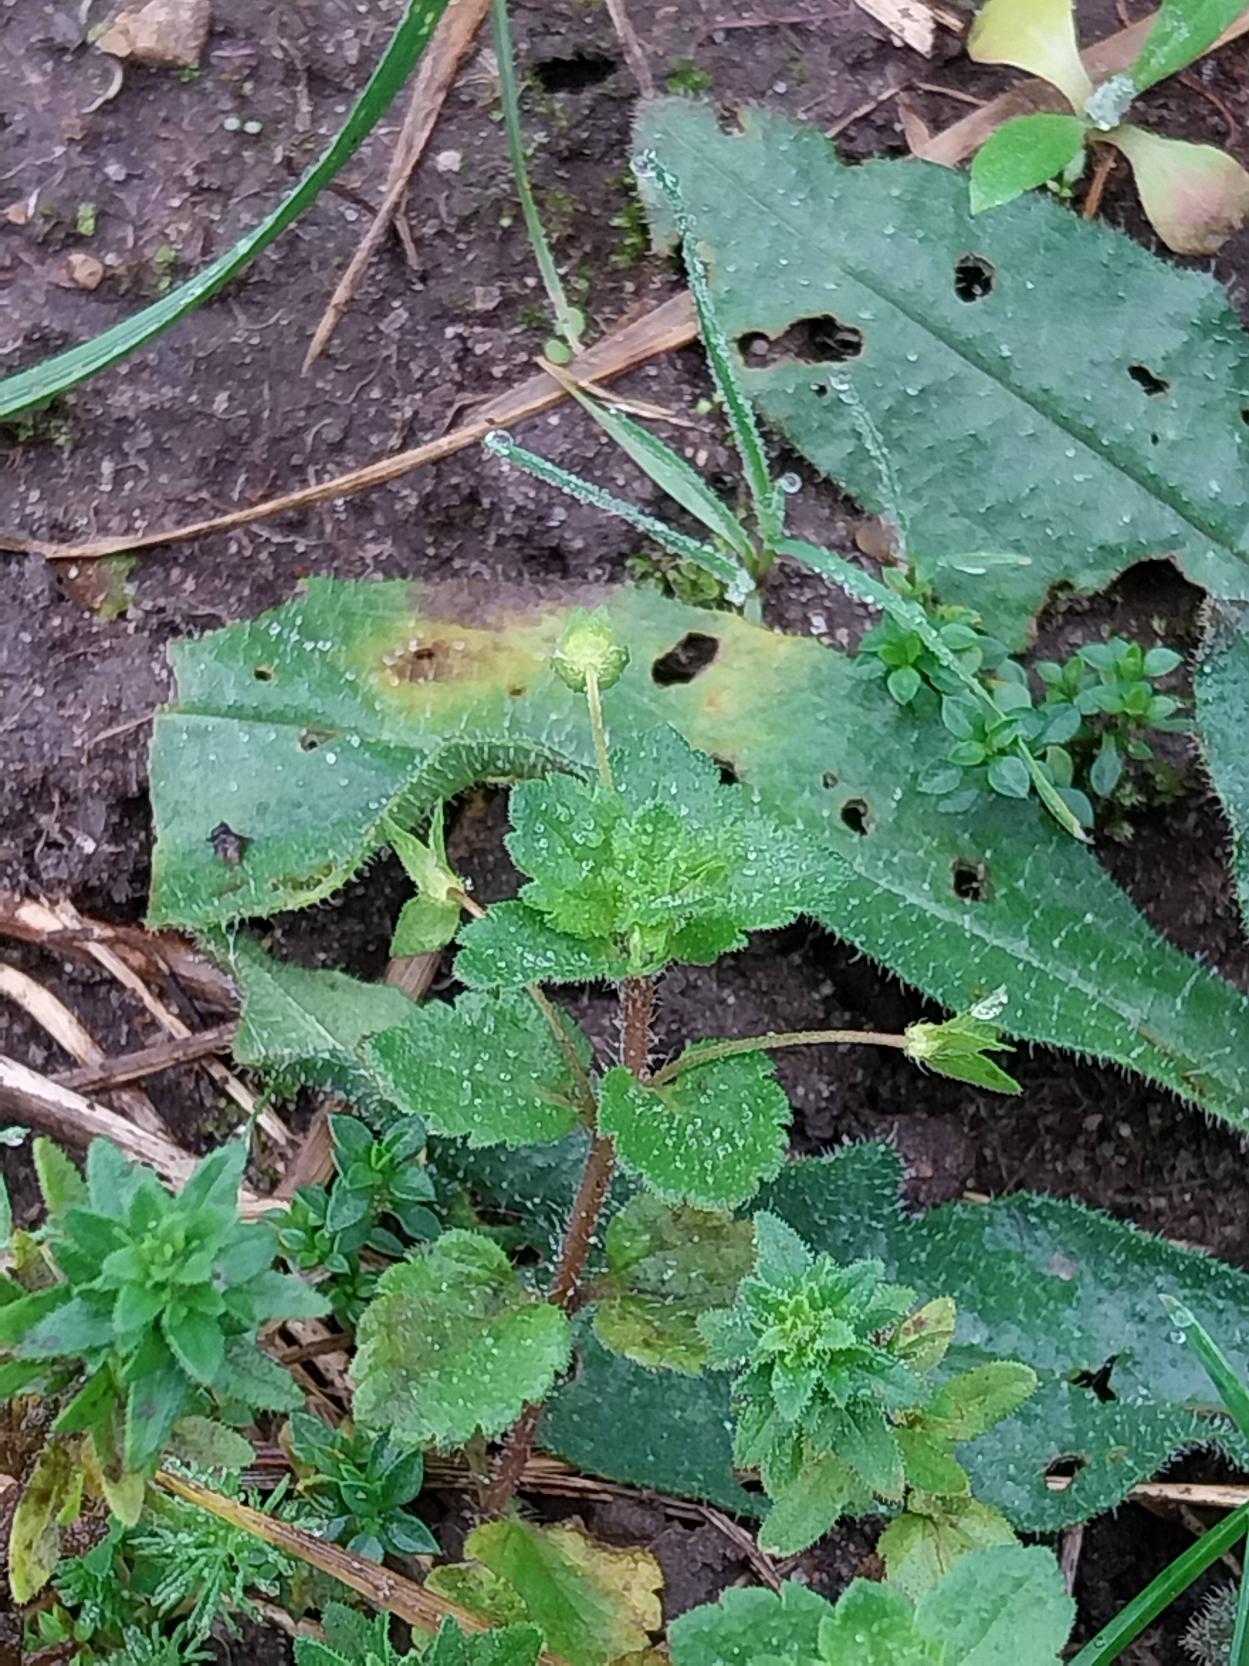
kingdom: Plantae
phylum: Tracheophyta
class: Magnoliopsida
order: Lamiales
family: Plantaginaceae
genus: Veronica
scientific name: Veronica persica
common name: Storkronet ærenpris
